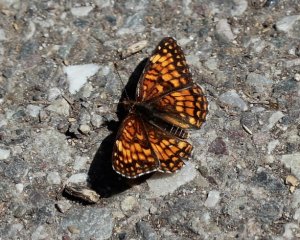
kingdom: Animalia
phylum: Arthropoda
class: Insecta
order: Lepidoptera
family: Nymphalidae
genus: Chlosyne
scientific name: Chlosyne palla
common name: Northern Checkerspot
